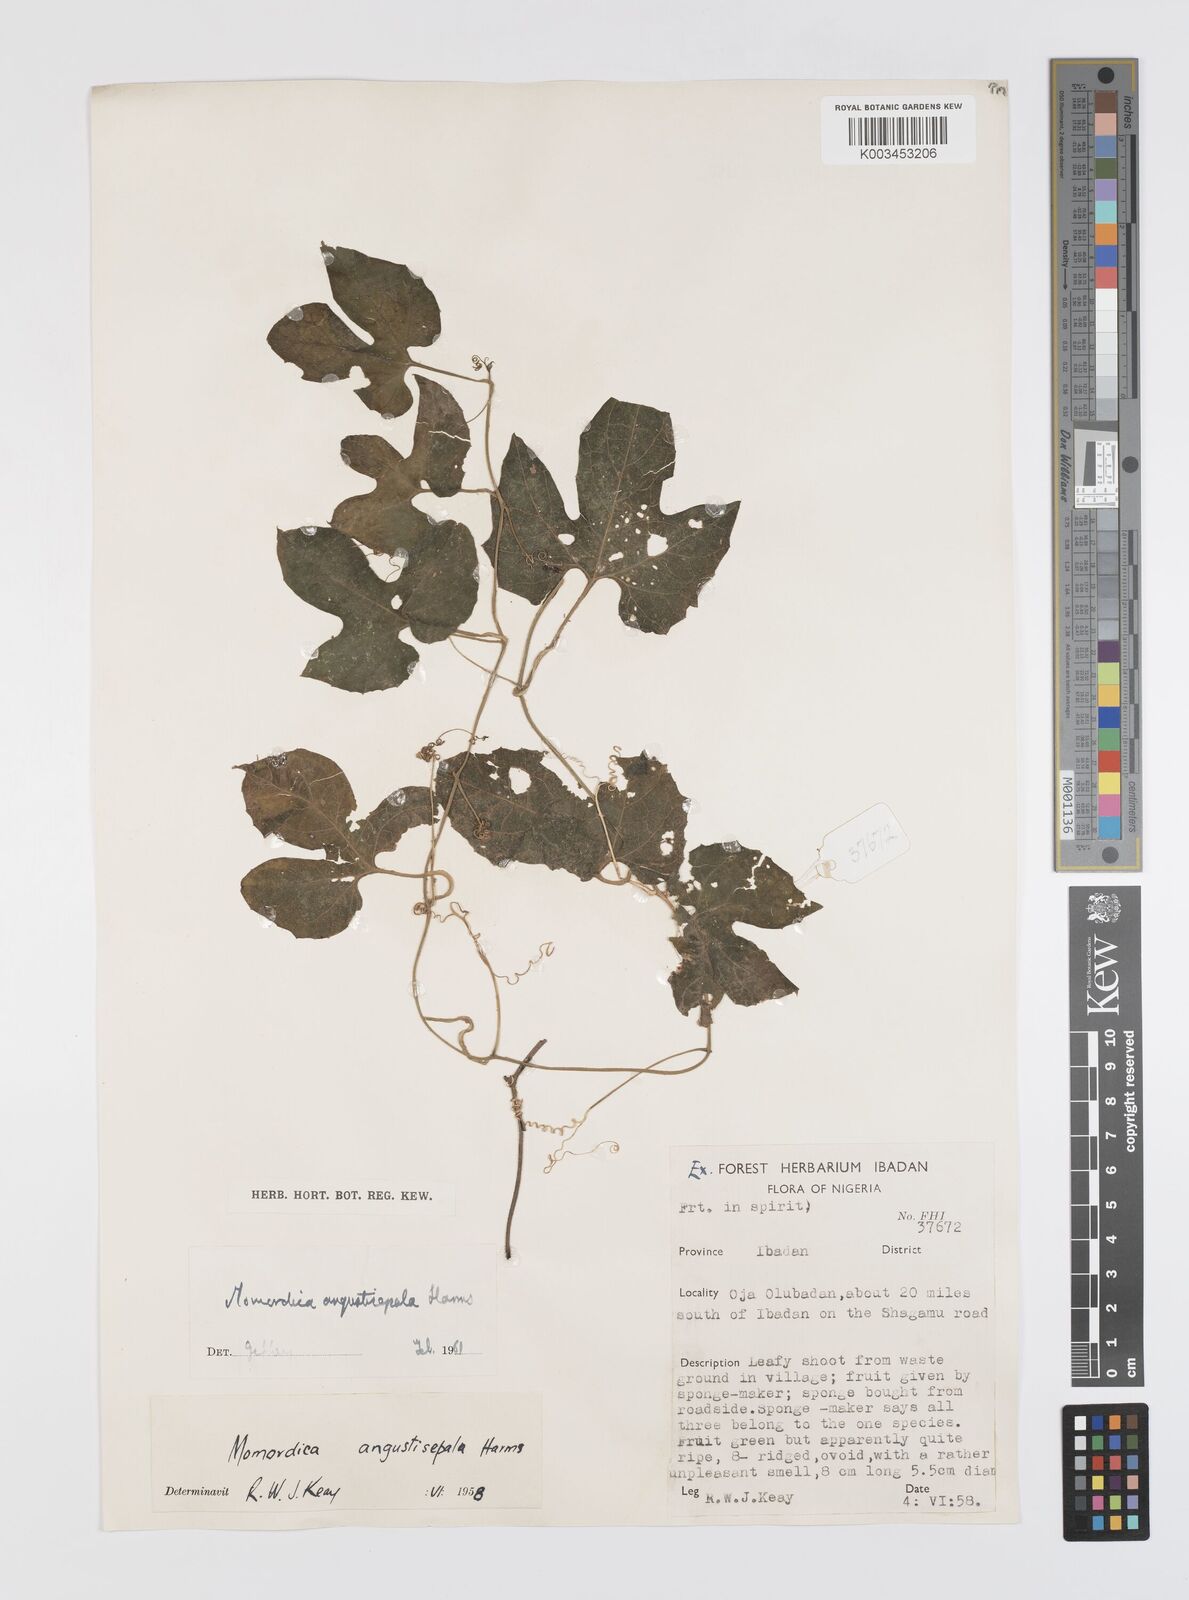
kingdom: Plantae
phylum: Tracheophyta
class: Magnoliopsida
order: Cucurbitales
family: Cucurbitaceae
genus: Momordica
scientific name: Momordica angustisepala
